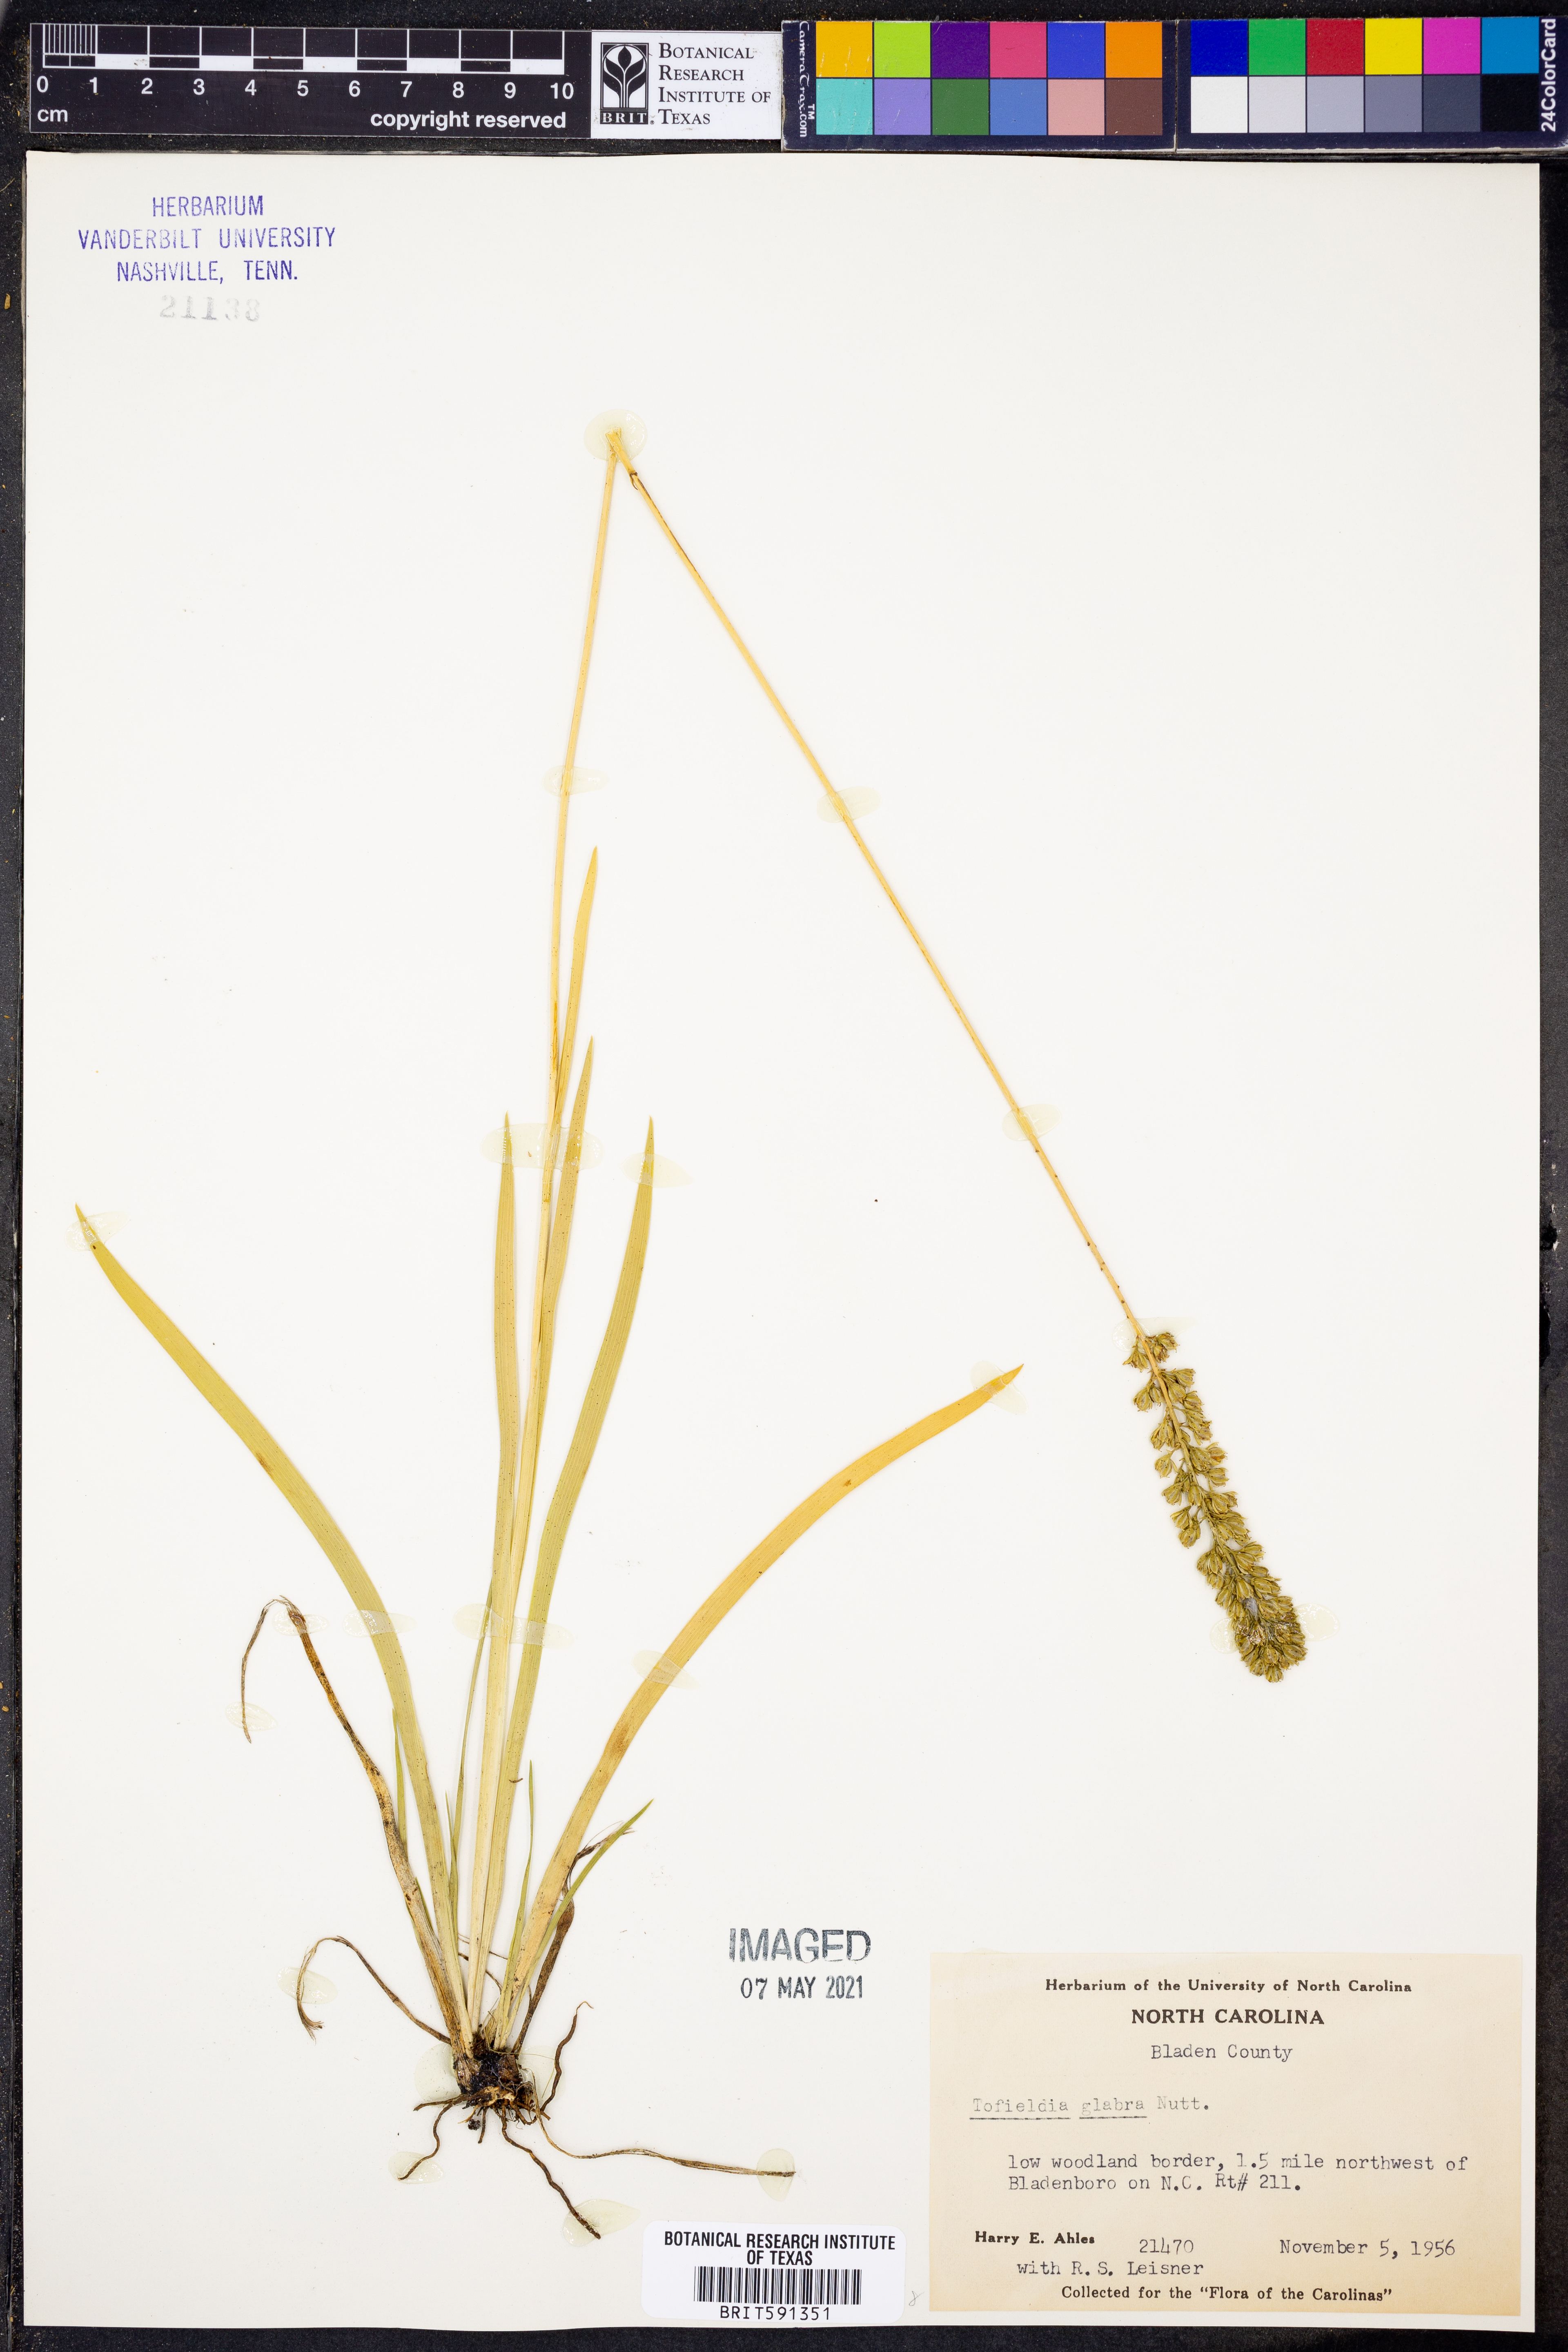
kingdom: Plantae
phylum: Tracheophyta
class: Liliopsida
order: Alismatales
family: Tofieldiaceae
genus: Tofieldia
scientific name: Tofieldia glabra
